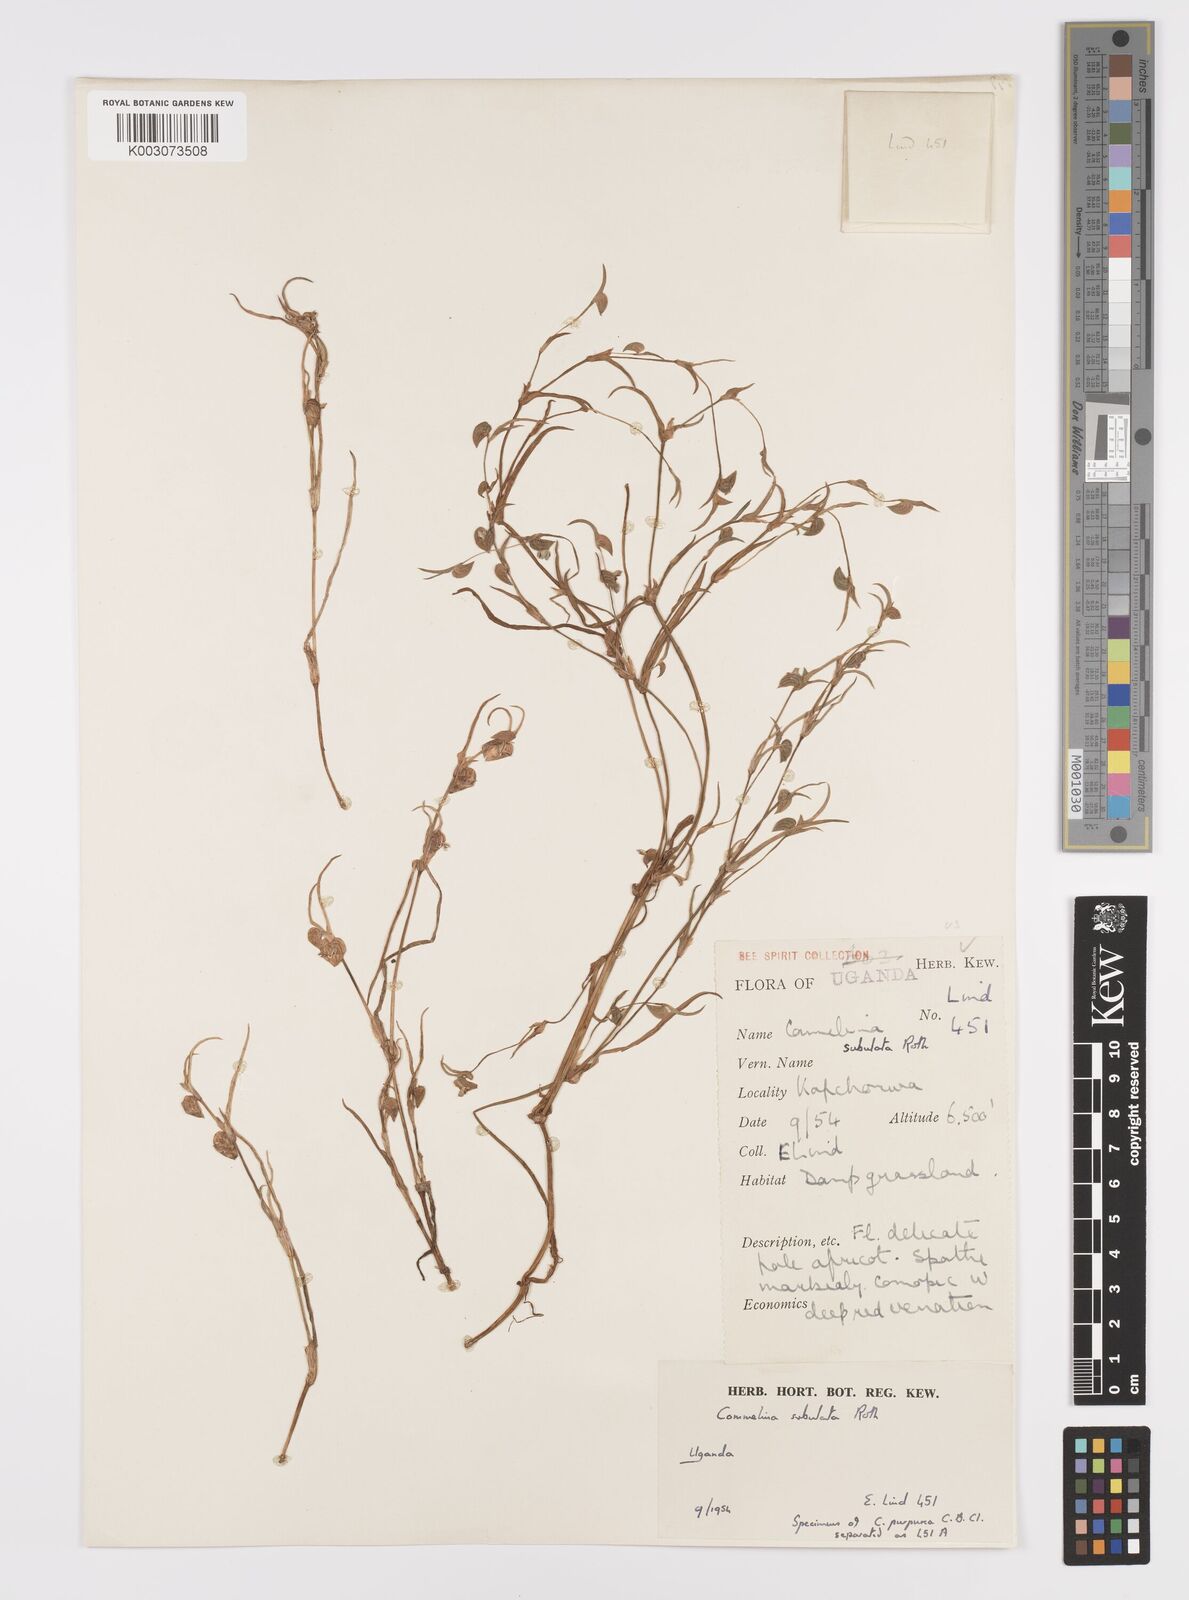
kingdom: Plantae
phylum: Tracheophyta
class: Liliopsida
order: Commelinales
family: Commelinaceae
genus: Commelina
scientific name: Commelina subulata
